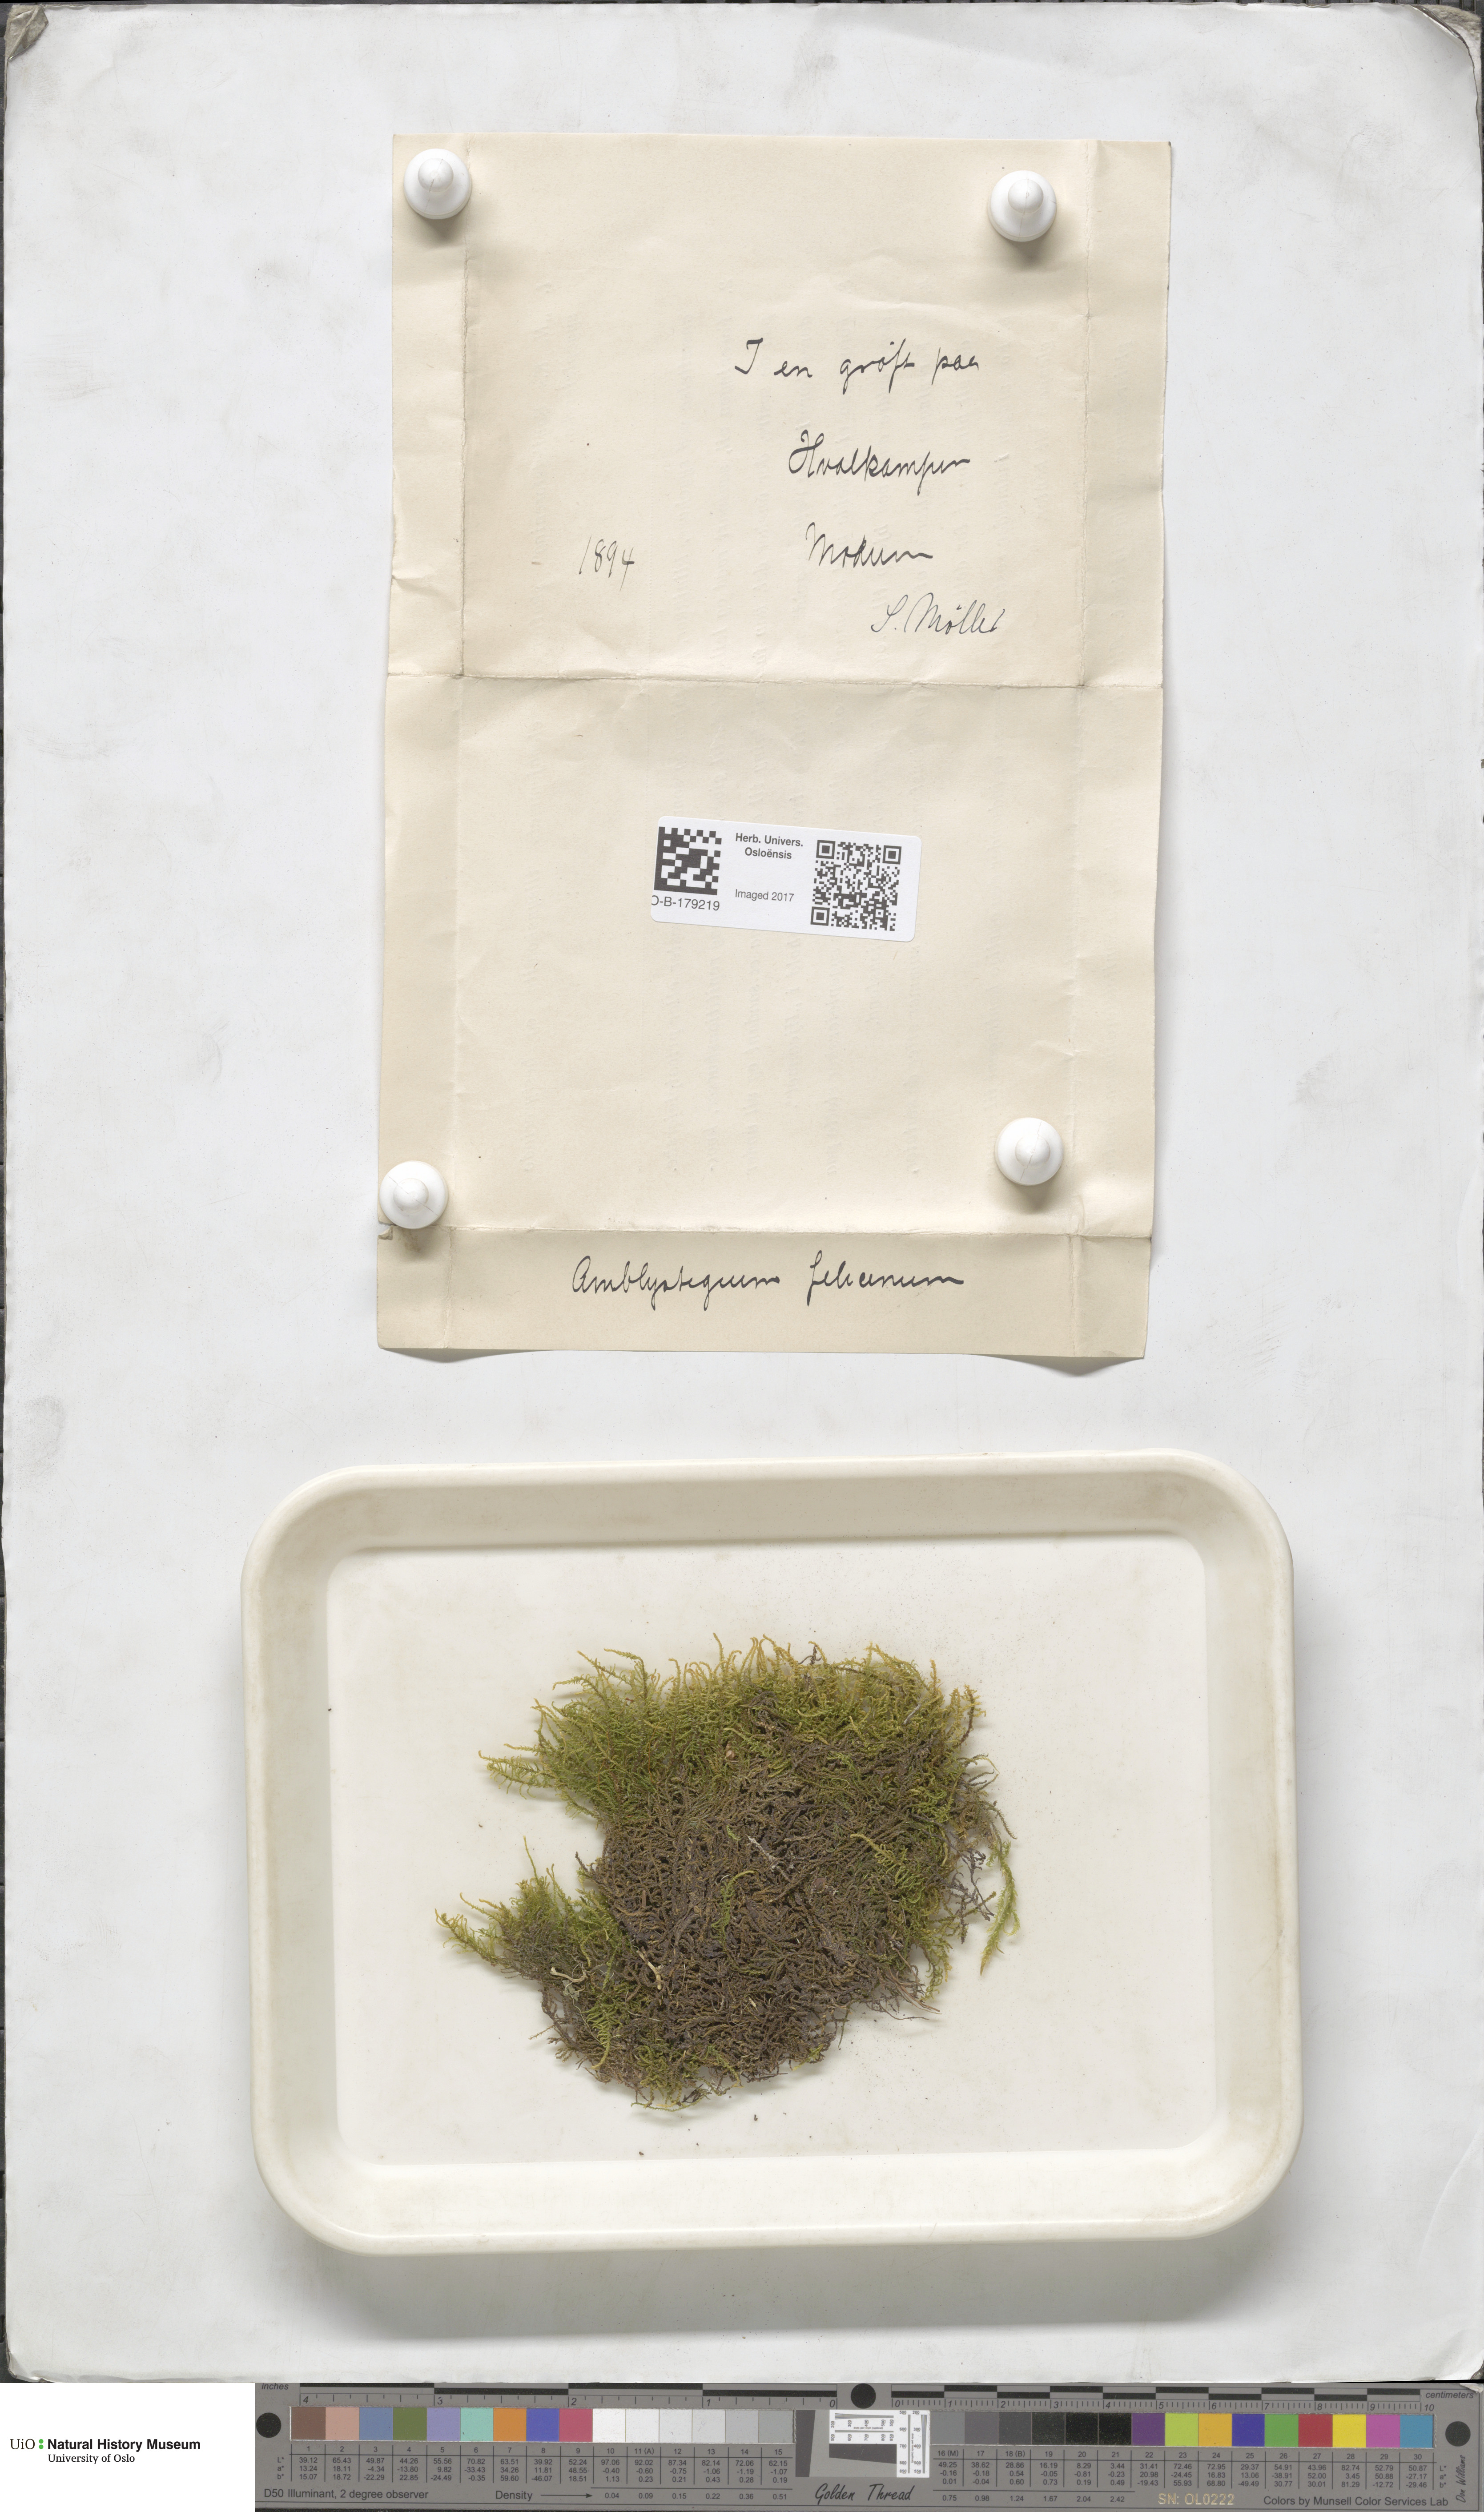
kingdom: Plantae
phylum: Bryophyta
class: Bryopsida
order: Hypnales
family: Amblystegiaceae
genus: Cratoneuron
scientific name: Cratoneuron filicinum
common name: Fern-leaved hook moss
